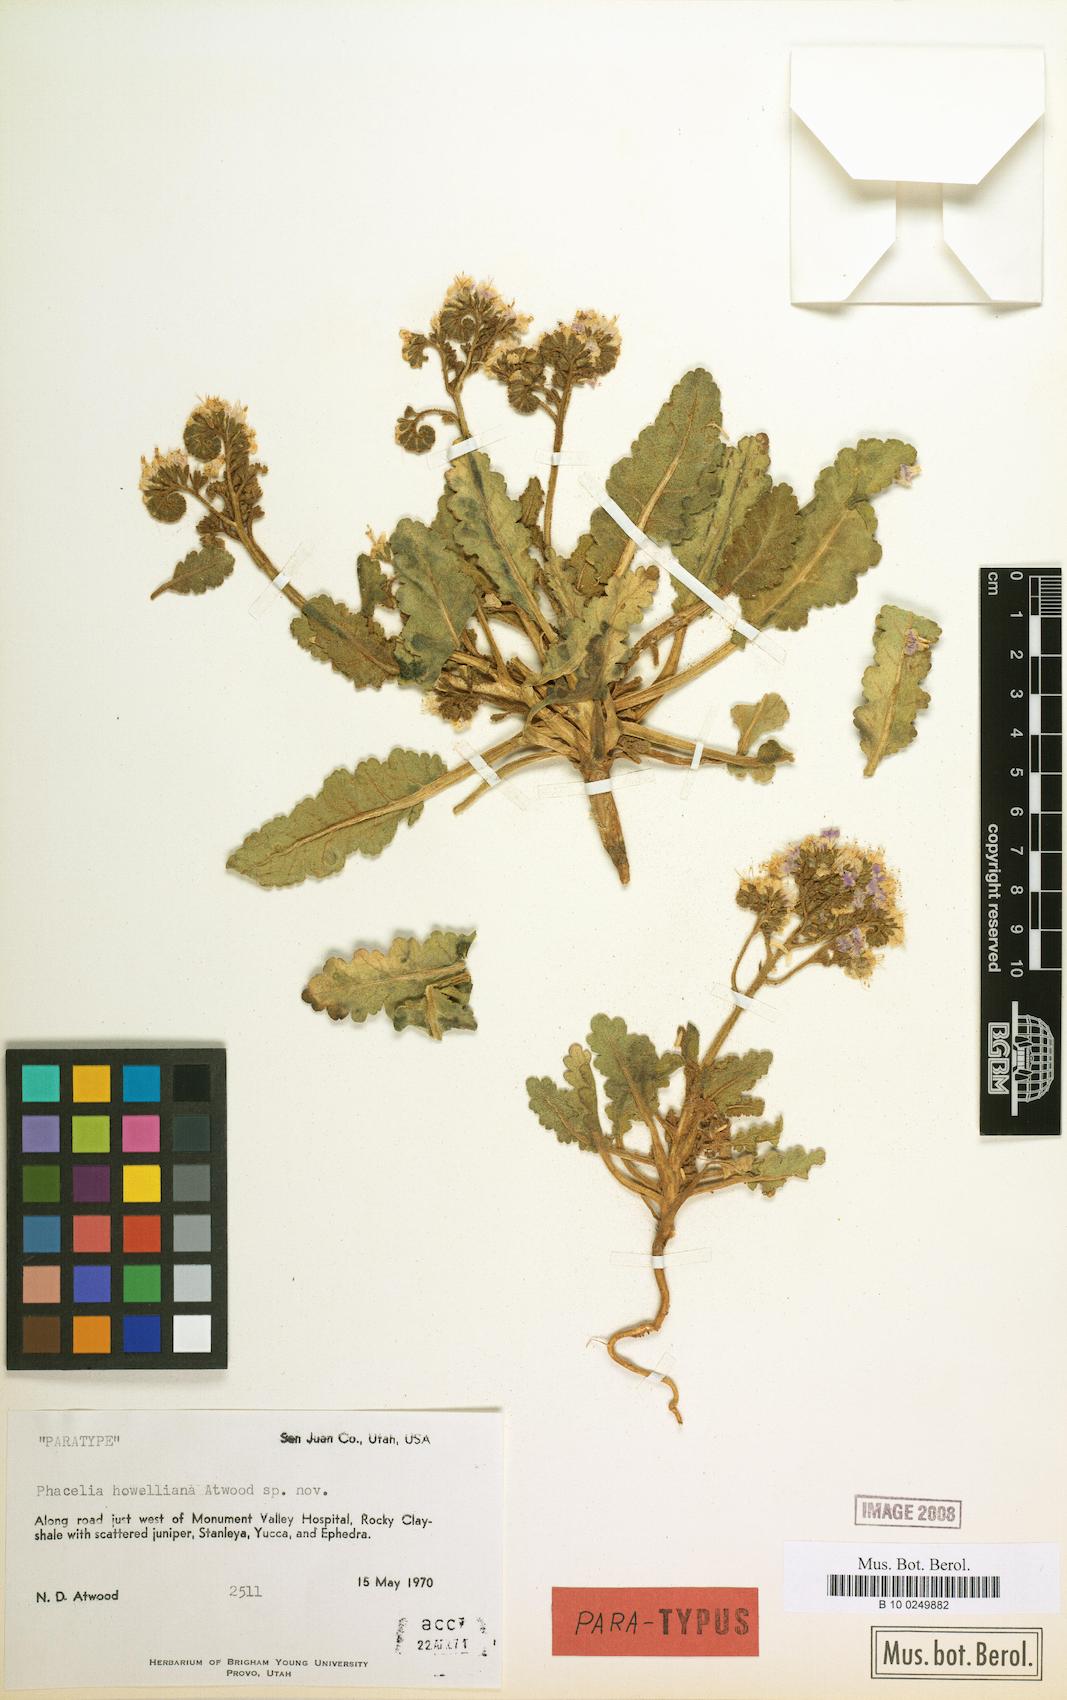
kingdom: Plantae
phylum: Tracheophyta
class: Magnoliopsida
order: Boraginales
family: Hydrophyllaceae
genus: Phacelia
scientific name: Phacelia howelliana
